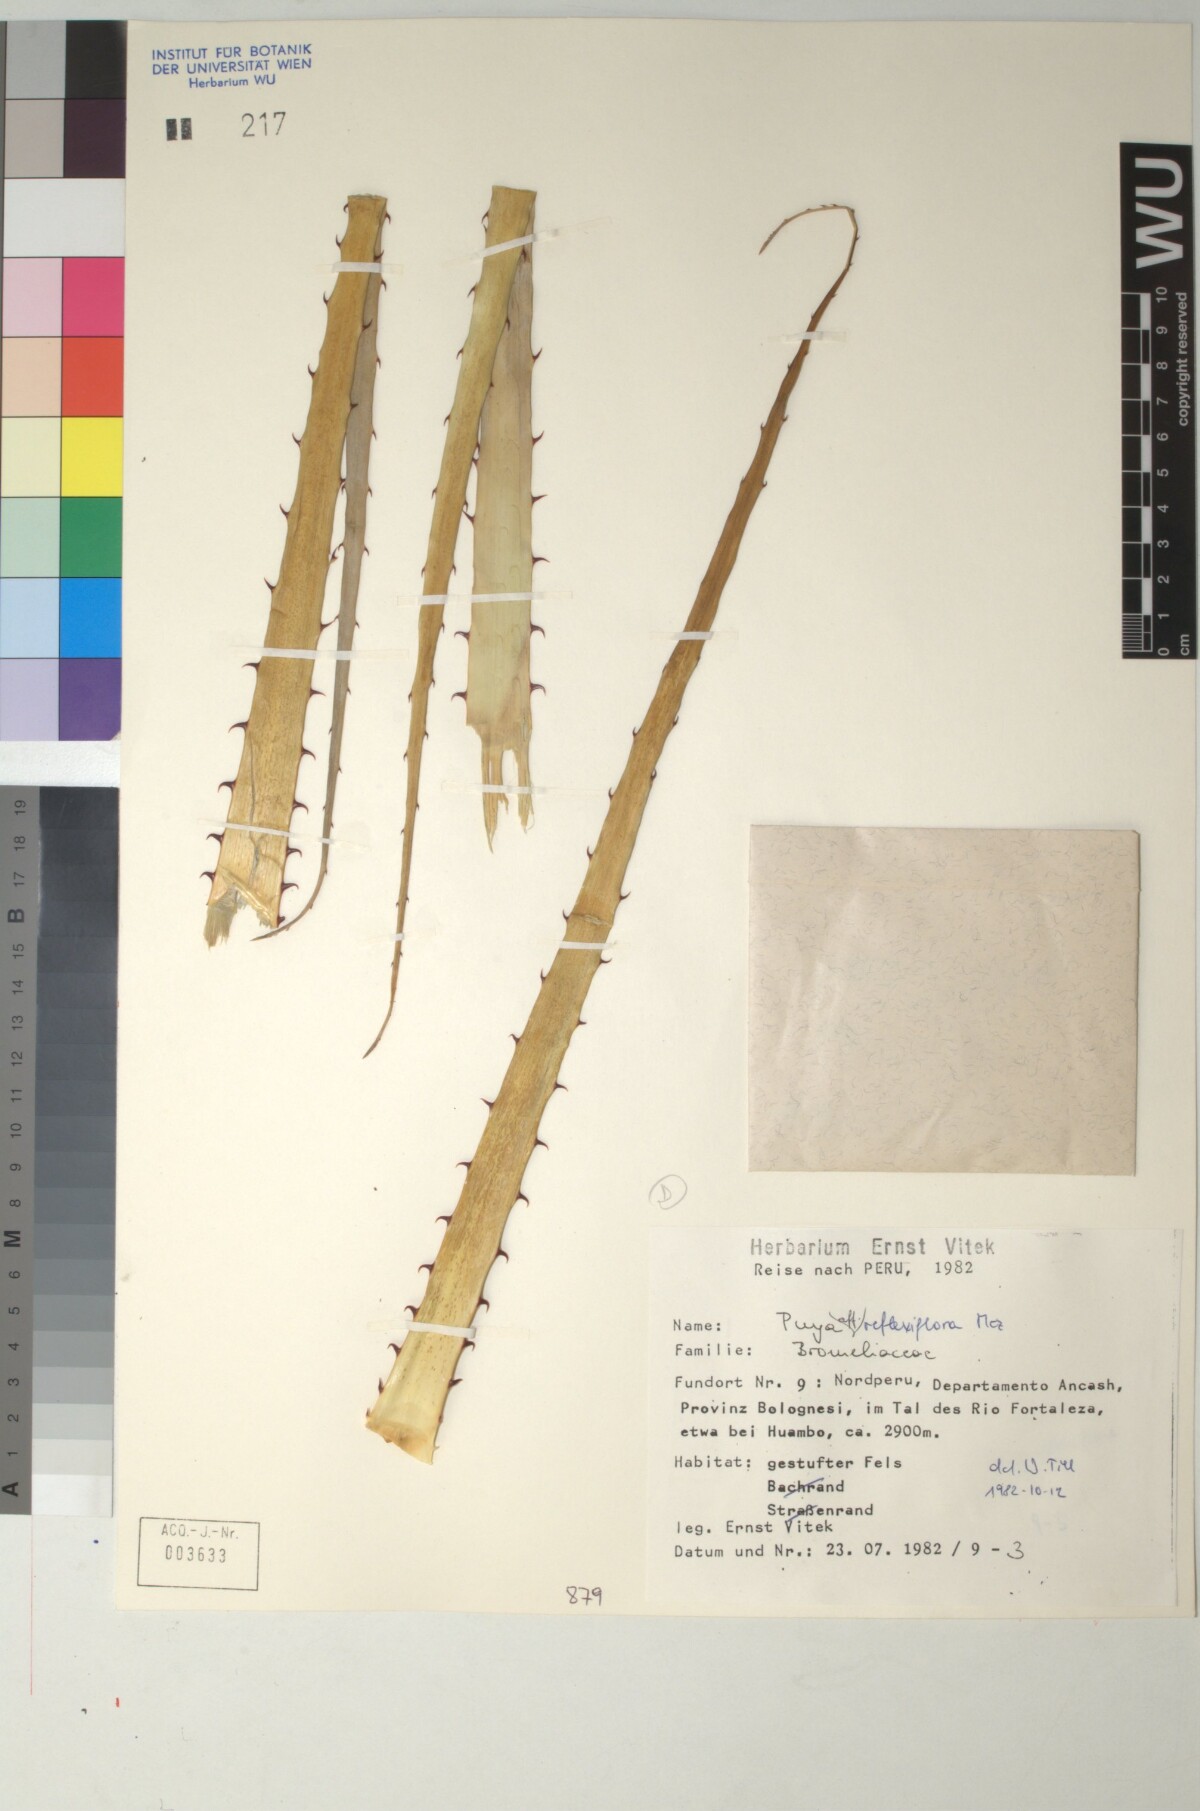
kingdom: Plantae
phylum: Tracheophyta
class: Liliopsida
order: Poales
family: Bromeliaceae
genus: Puya
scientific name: Puya stenothyrsa
